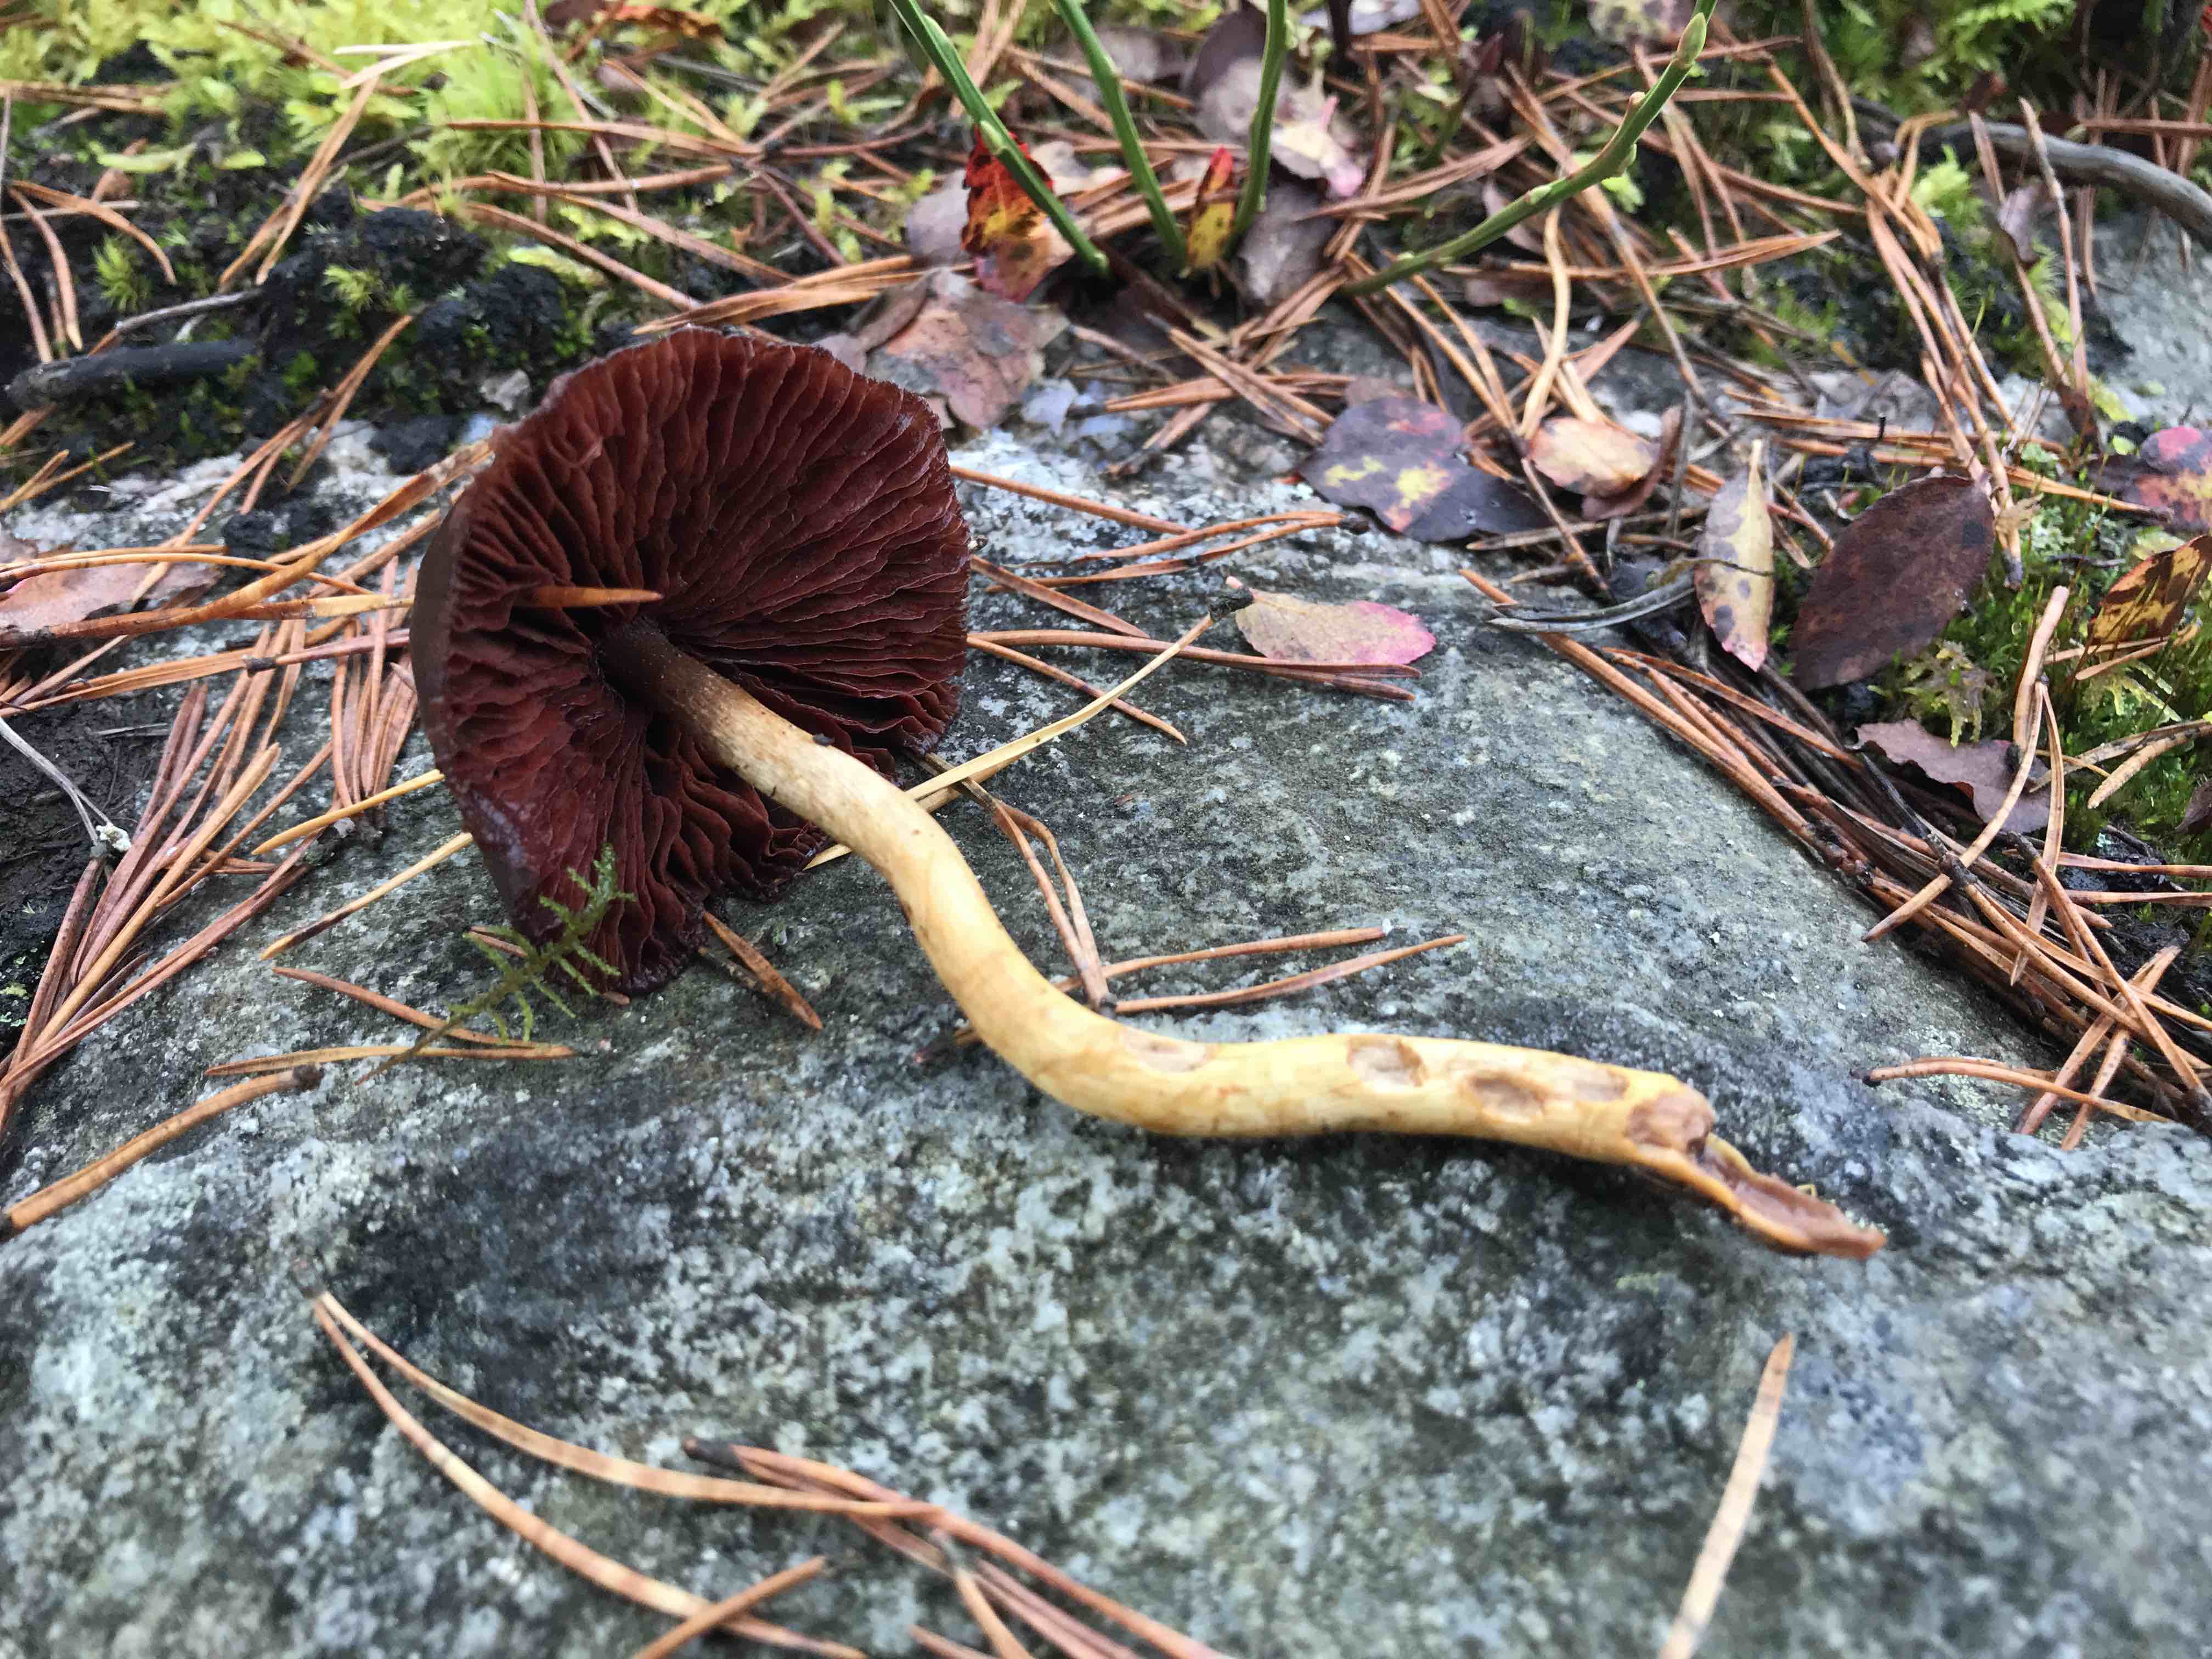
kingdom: Fungi
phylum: Basidiomycota
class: Agaricomycetes
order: Agaricales
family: Cortinariaceae
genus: Cortinarius
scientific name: Cortinarius
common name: cinnoberbladet slørhat
